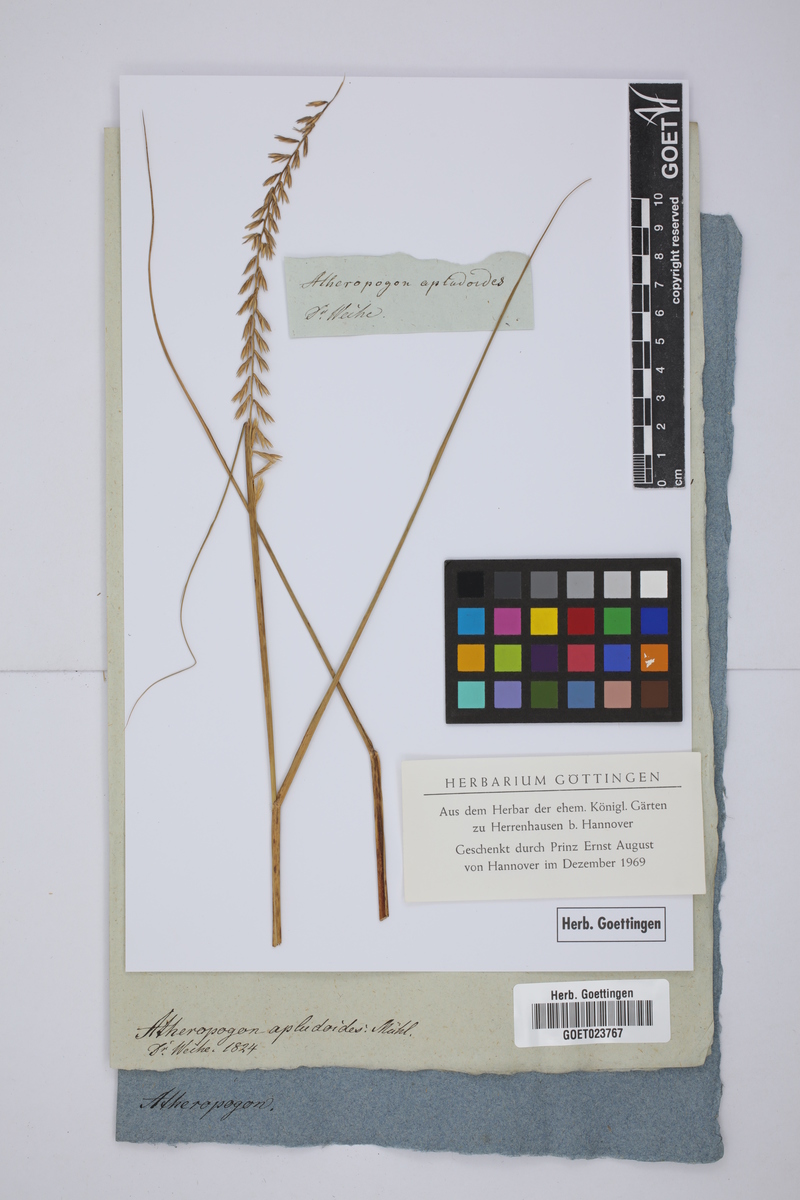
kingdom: Plantae
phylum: Tracheophyta
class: Liliopsida
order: Poales
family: Poaceae
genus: Bouteloua
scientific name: Bouteloua curtipendula
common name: Side-oats grama
